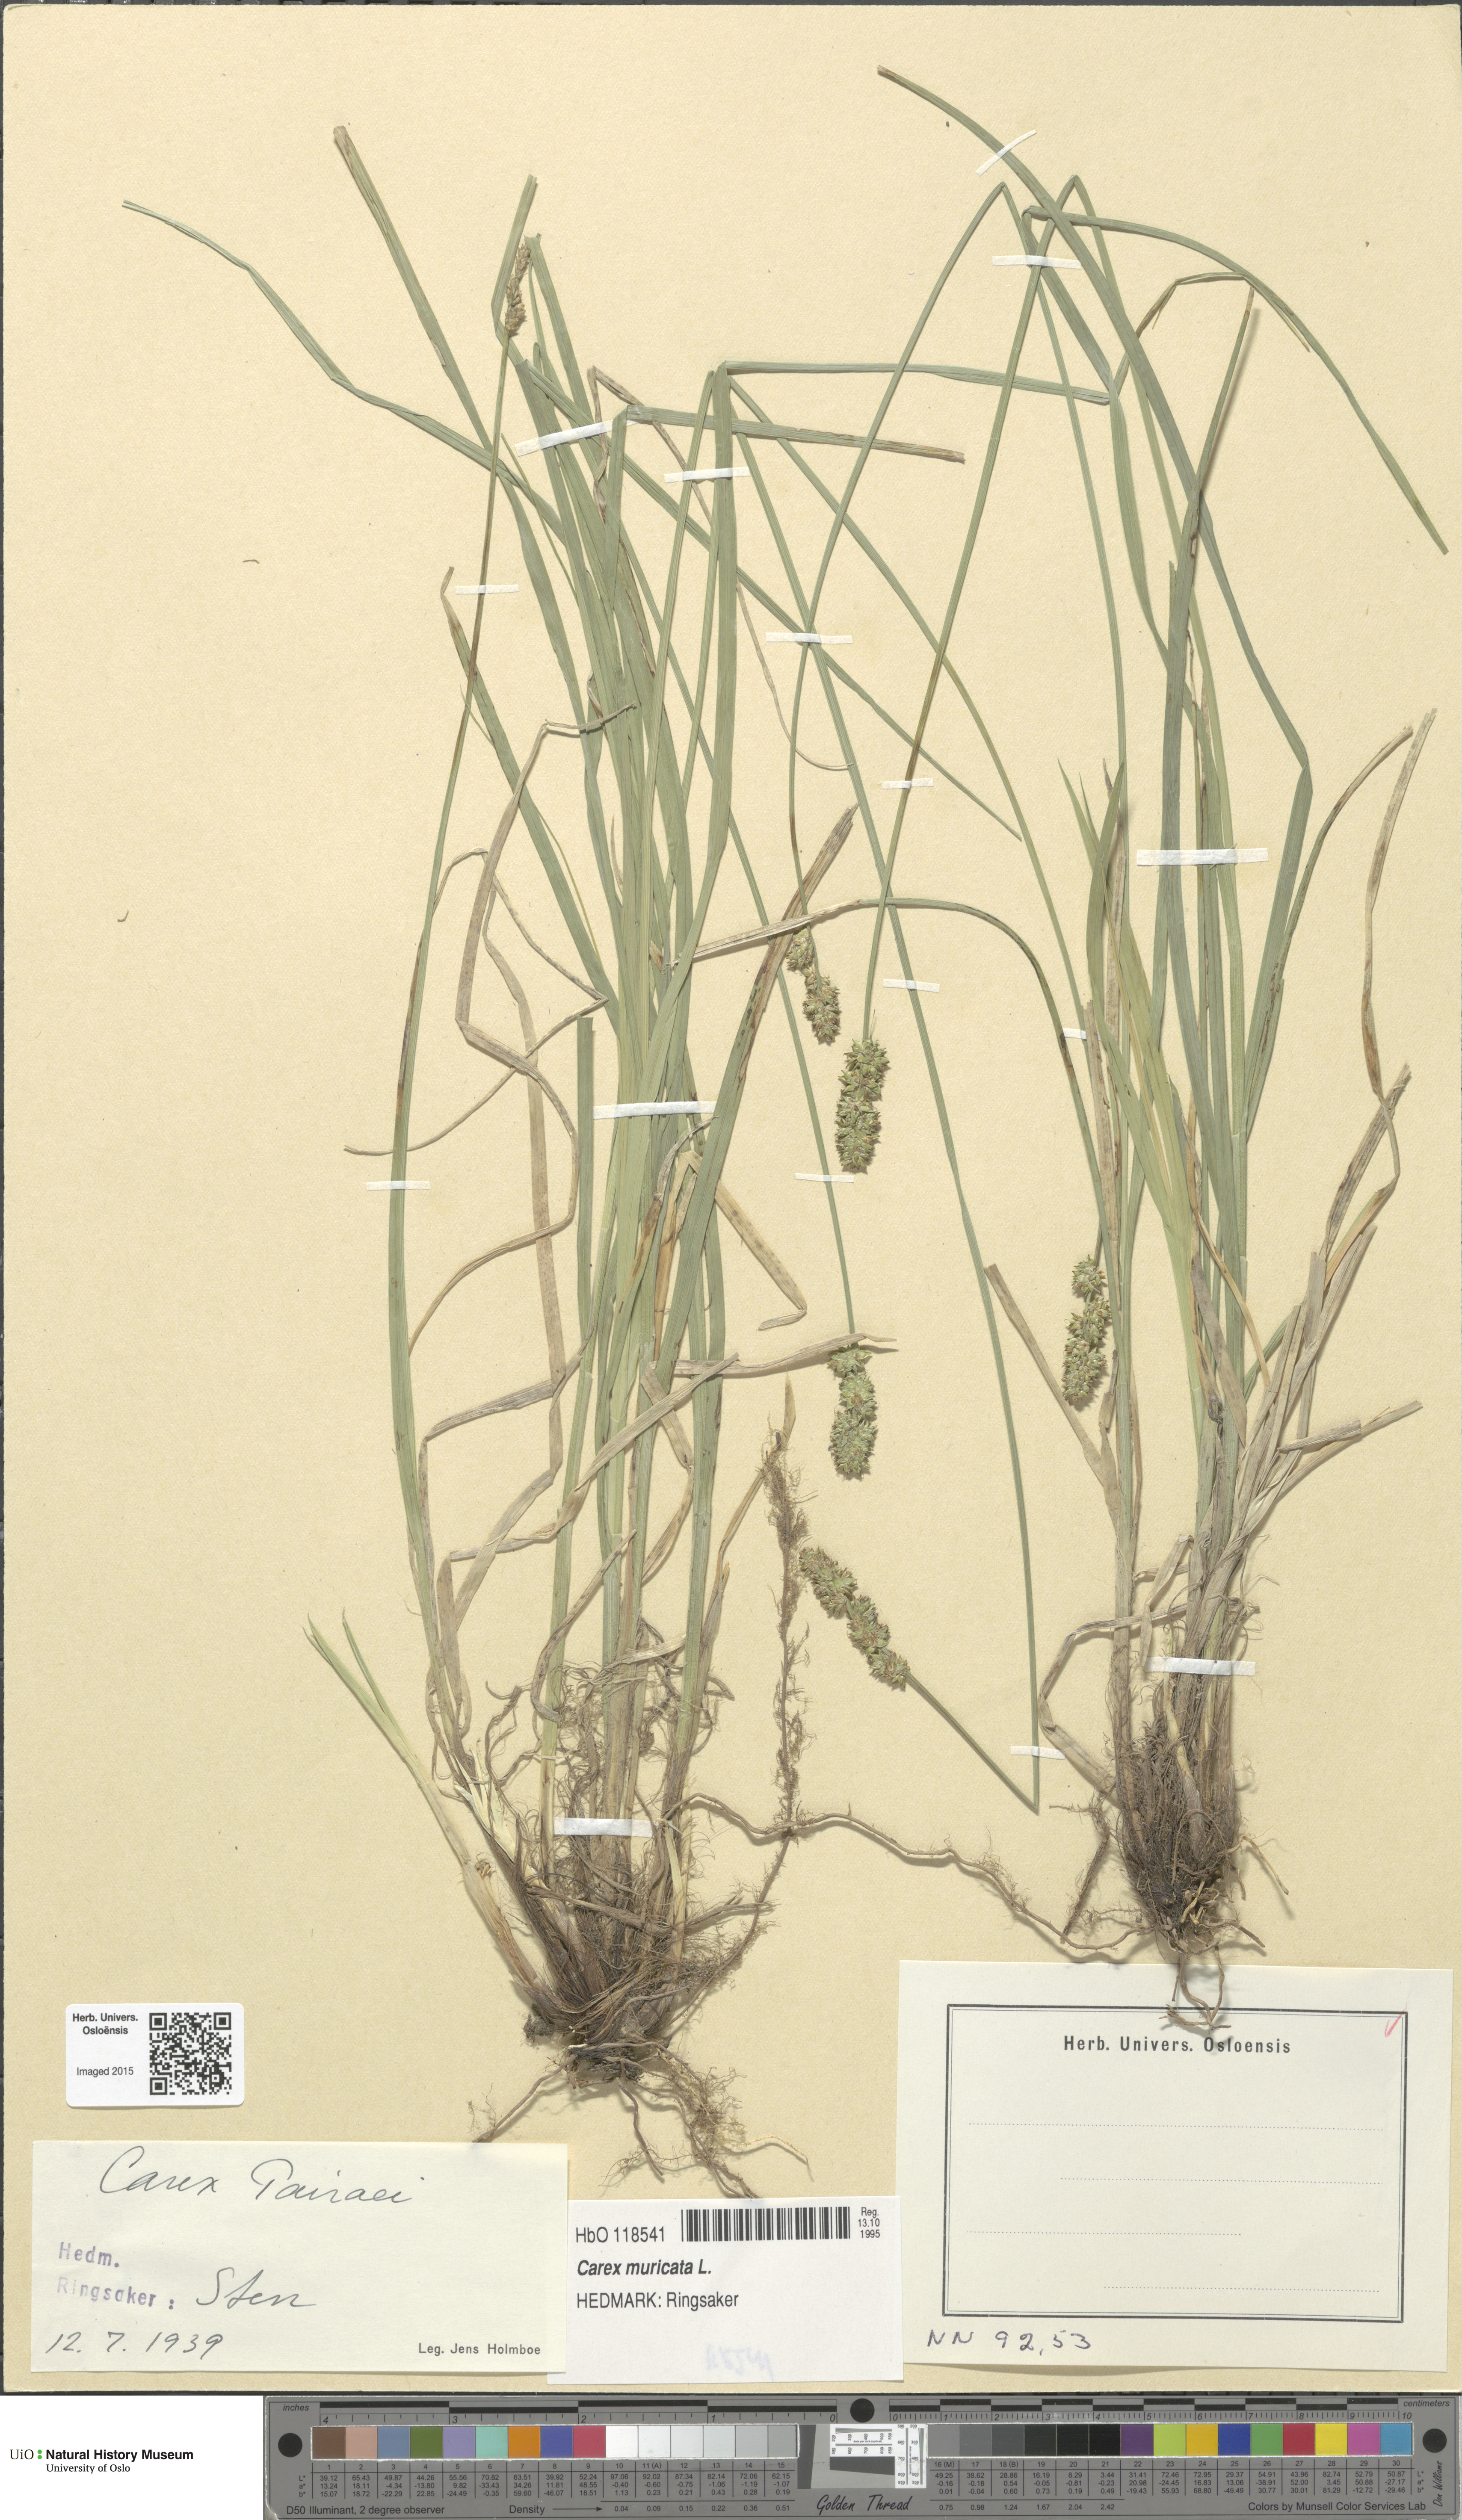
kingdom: Plantae
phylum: Tracheophyta
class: Liliopsida
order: Poales
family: Cyperaceae
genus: Carex
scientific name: Carex pairae
